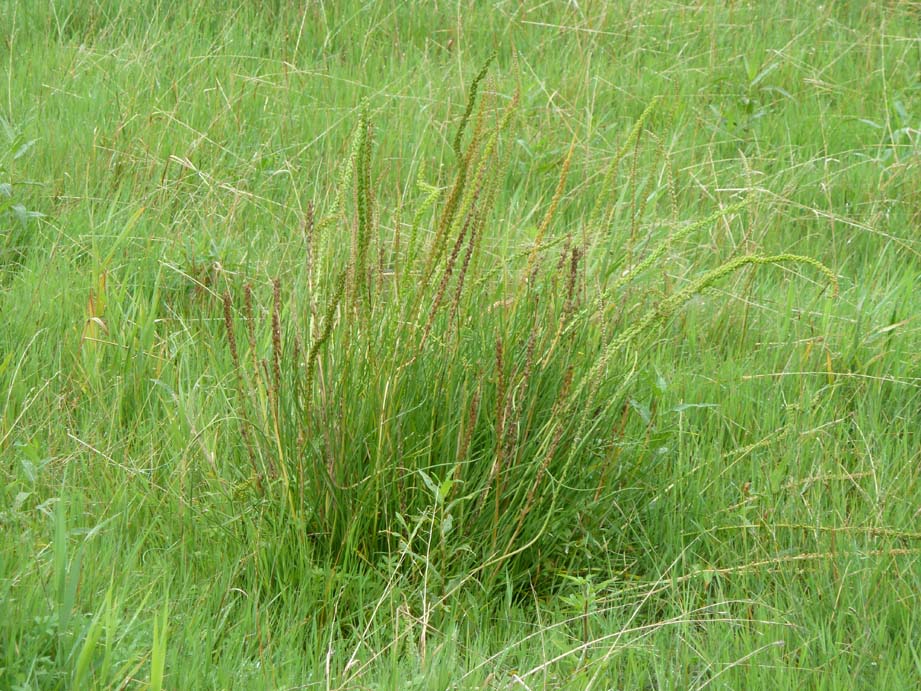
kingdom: Plantae
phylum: Tracheophyta
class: Liliopsida
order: Alismatales
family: Juncaginaceae
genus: Triglochin
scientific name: Triglochin maritima
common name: Sea arrowgrass
